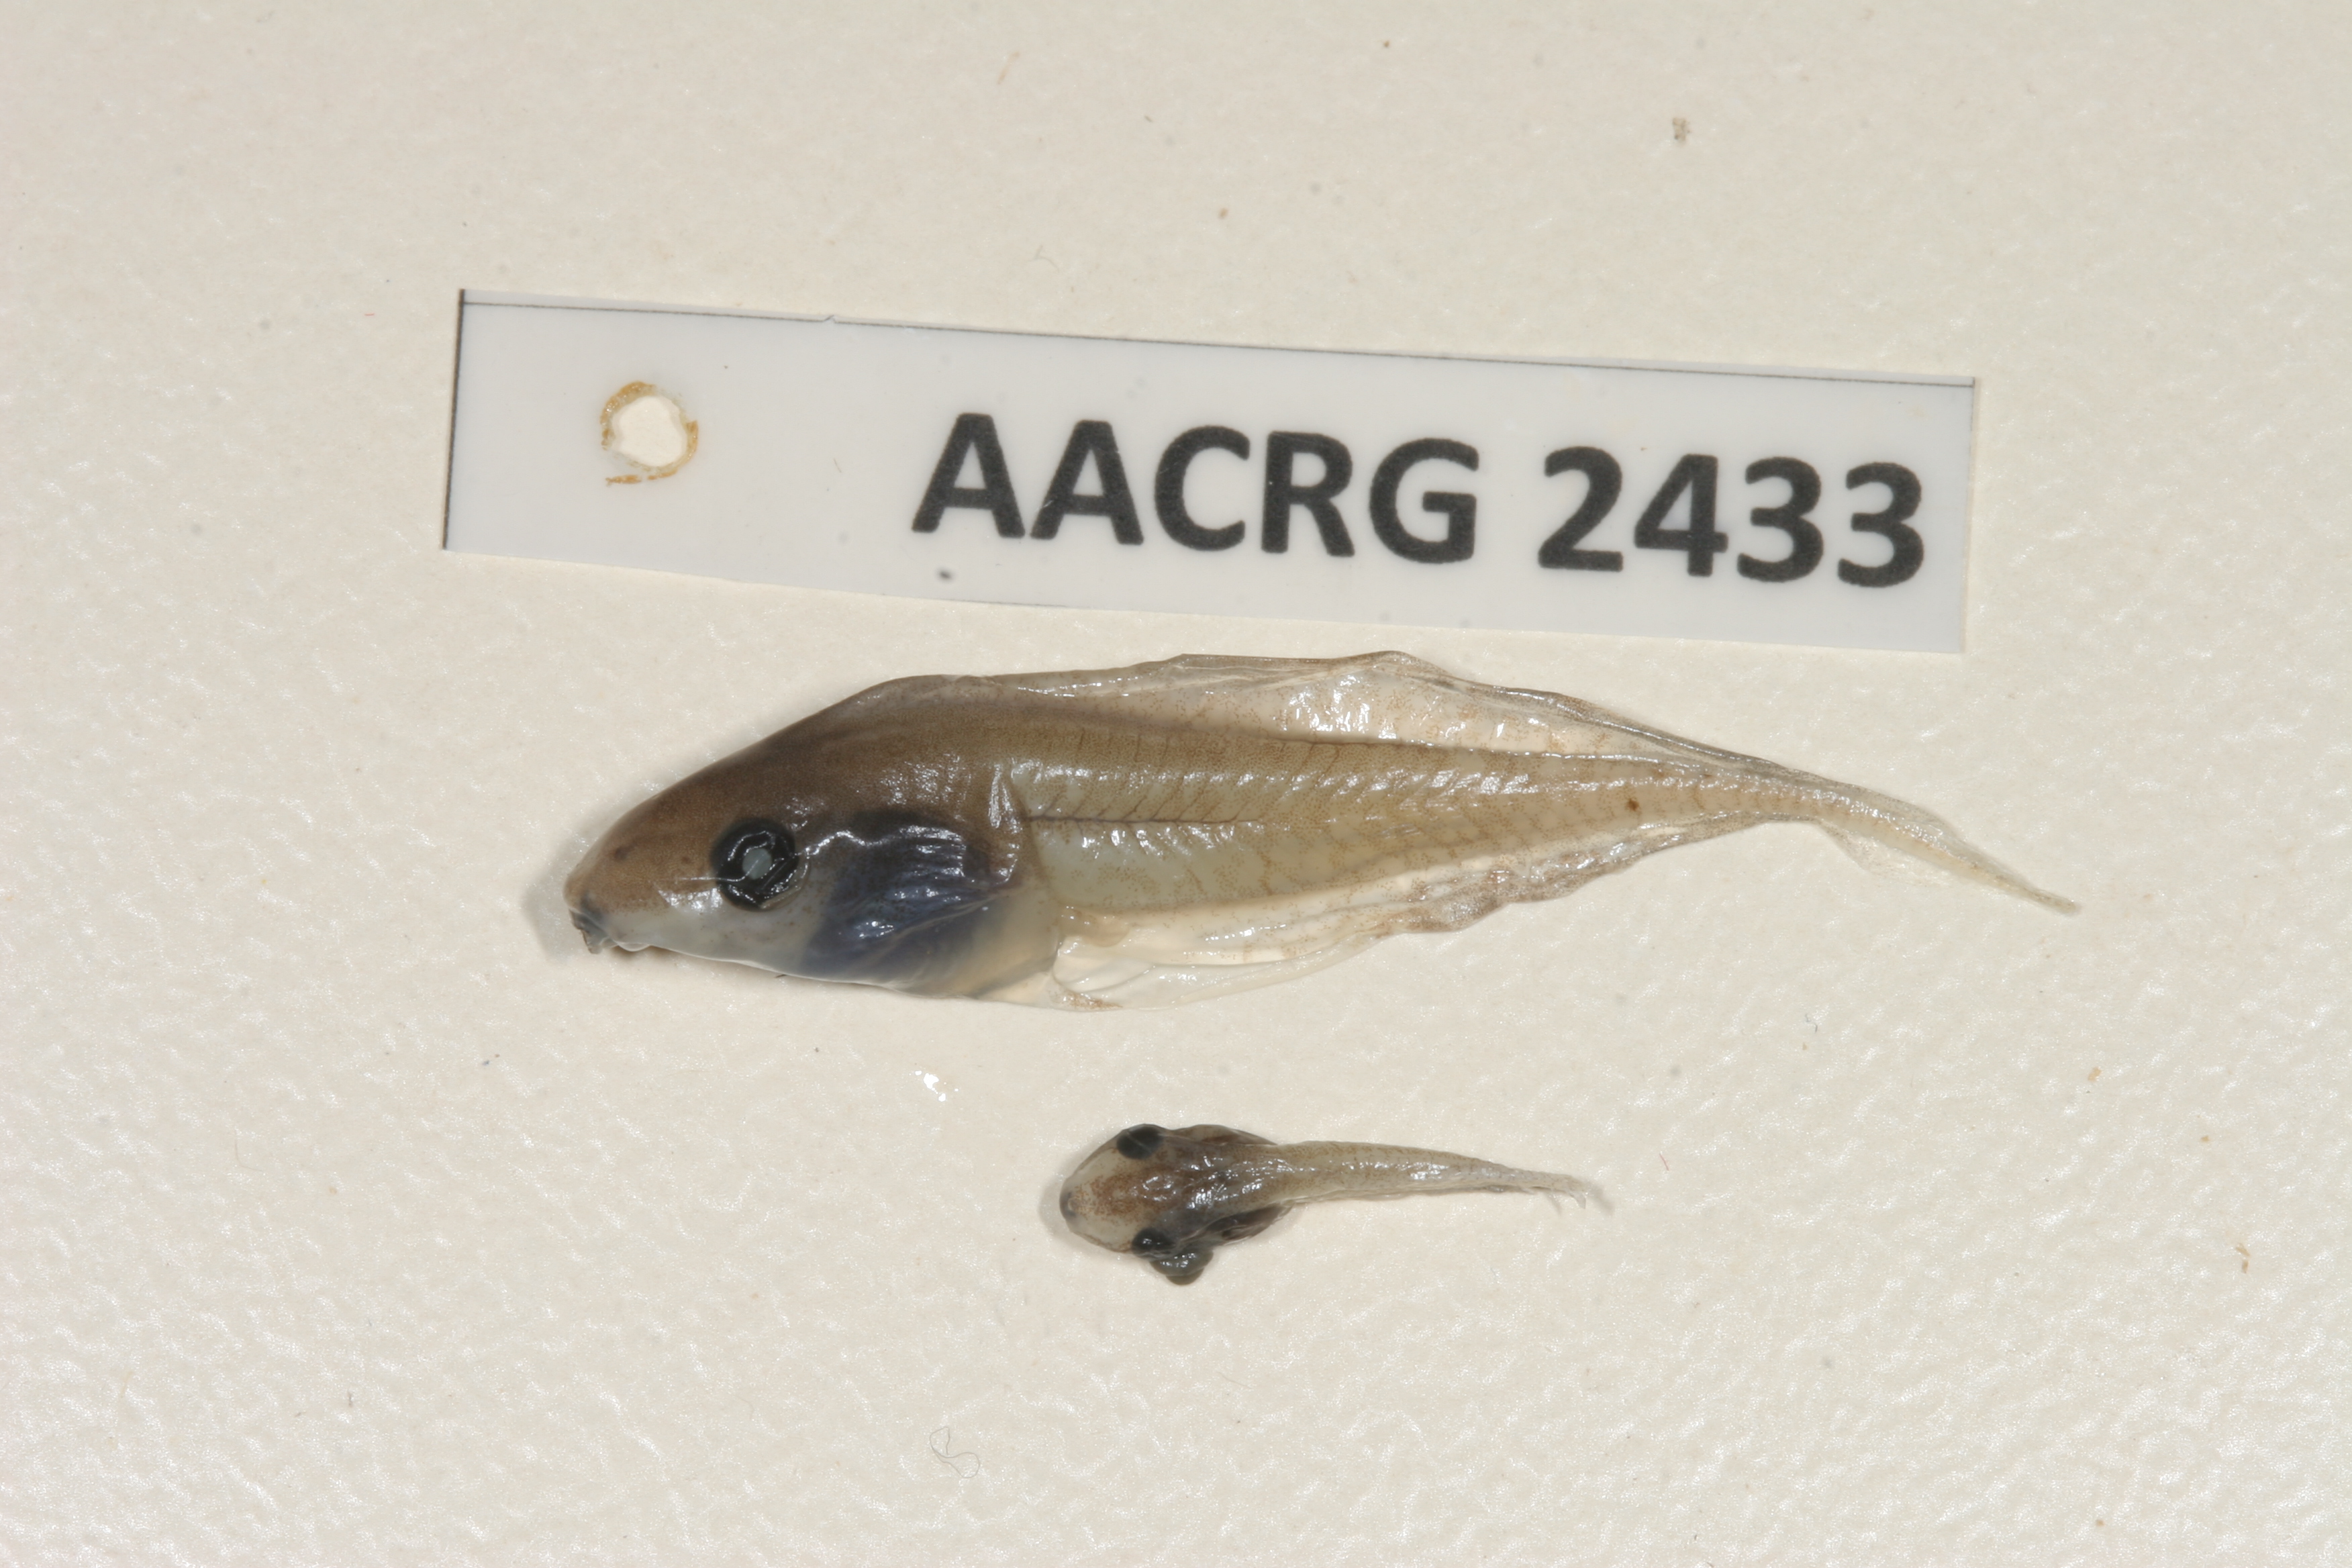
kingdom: Animalia
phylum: Chordata
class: Amphibia
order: Anura
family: Hyperoliidae
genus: Kassina
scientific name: Kassina senegalensis
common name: Senegal land frog
